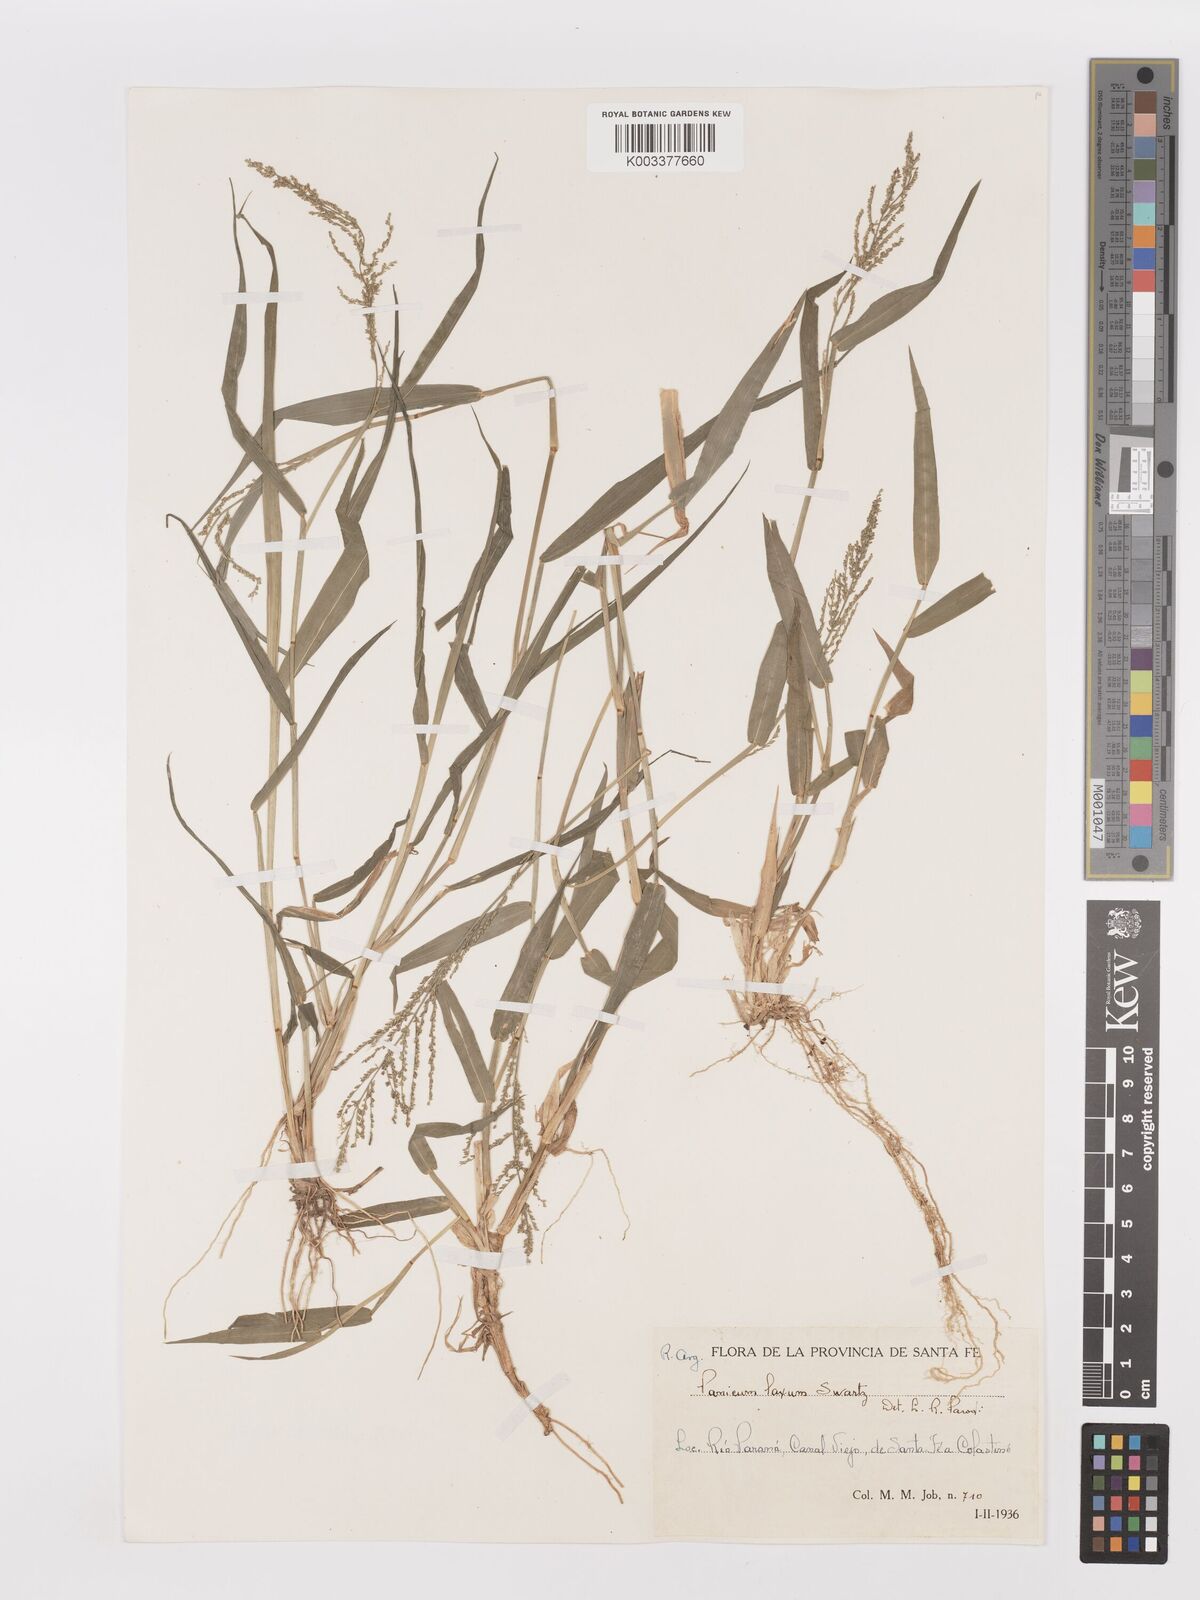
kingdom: Plantae
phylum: Tracheophyta
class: Liliopsida
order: Poales
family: Poaceae
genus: Steinchisma
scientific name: Steinchisma laxum
